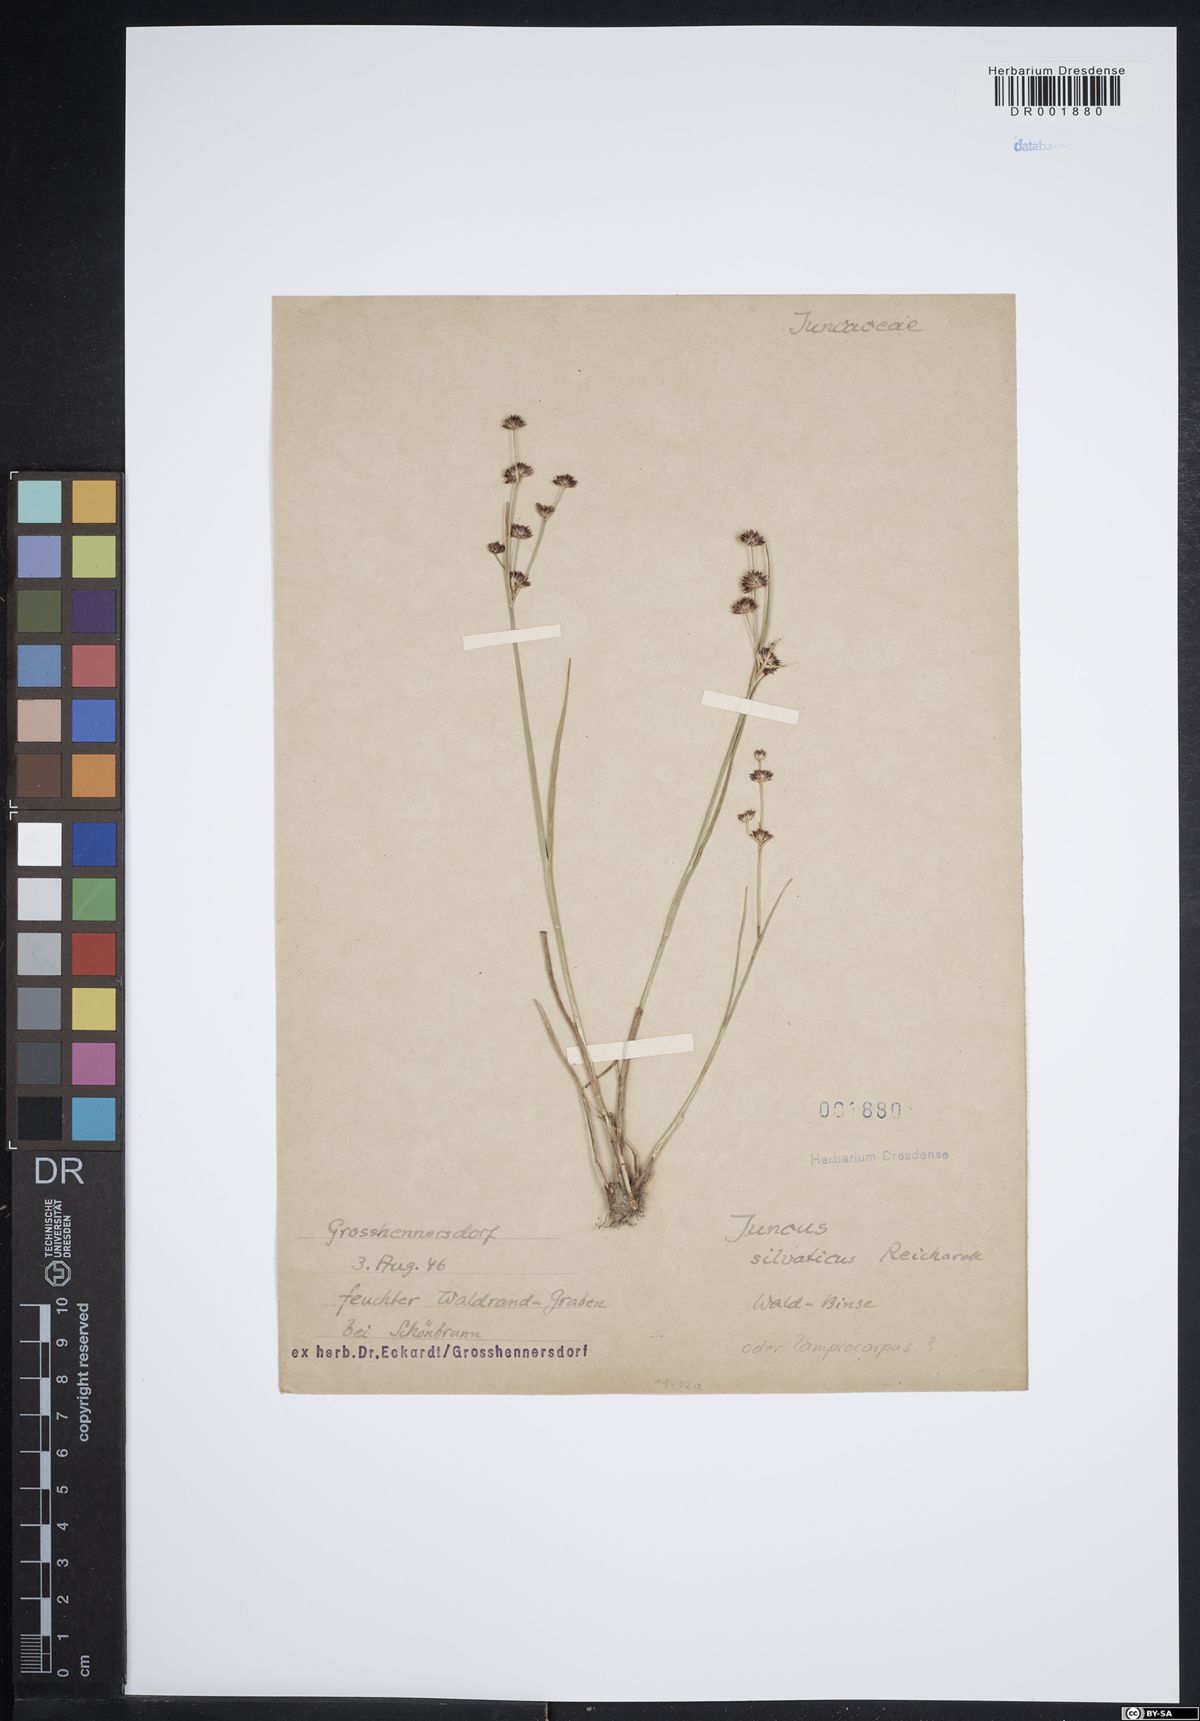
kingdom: Plantae
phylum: Tracheophyta
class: Liliopsida
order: Poales
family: Juncaceae
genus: Juncus
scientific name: Juncus articulatus
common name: Jointed rush
